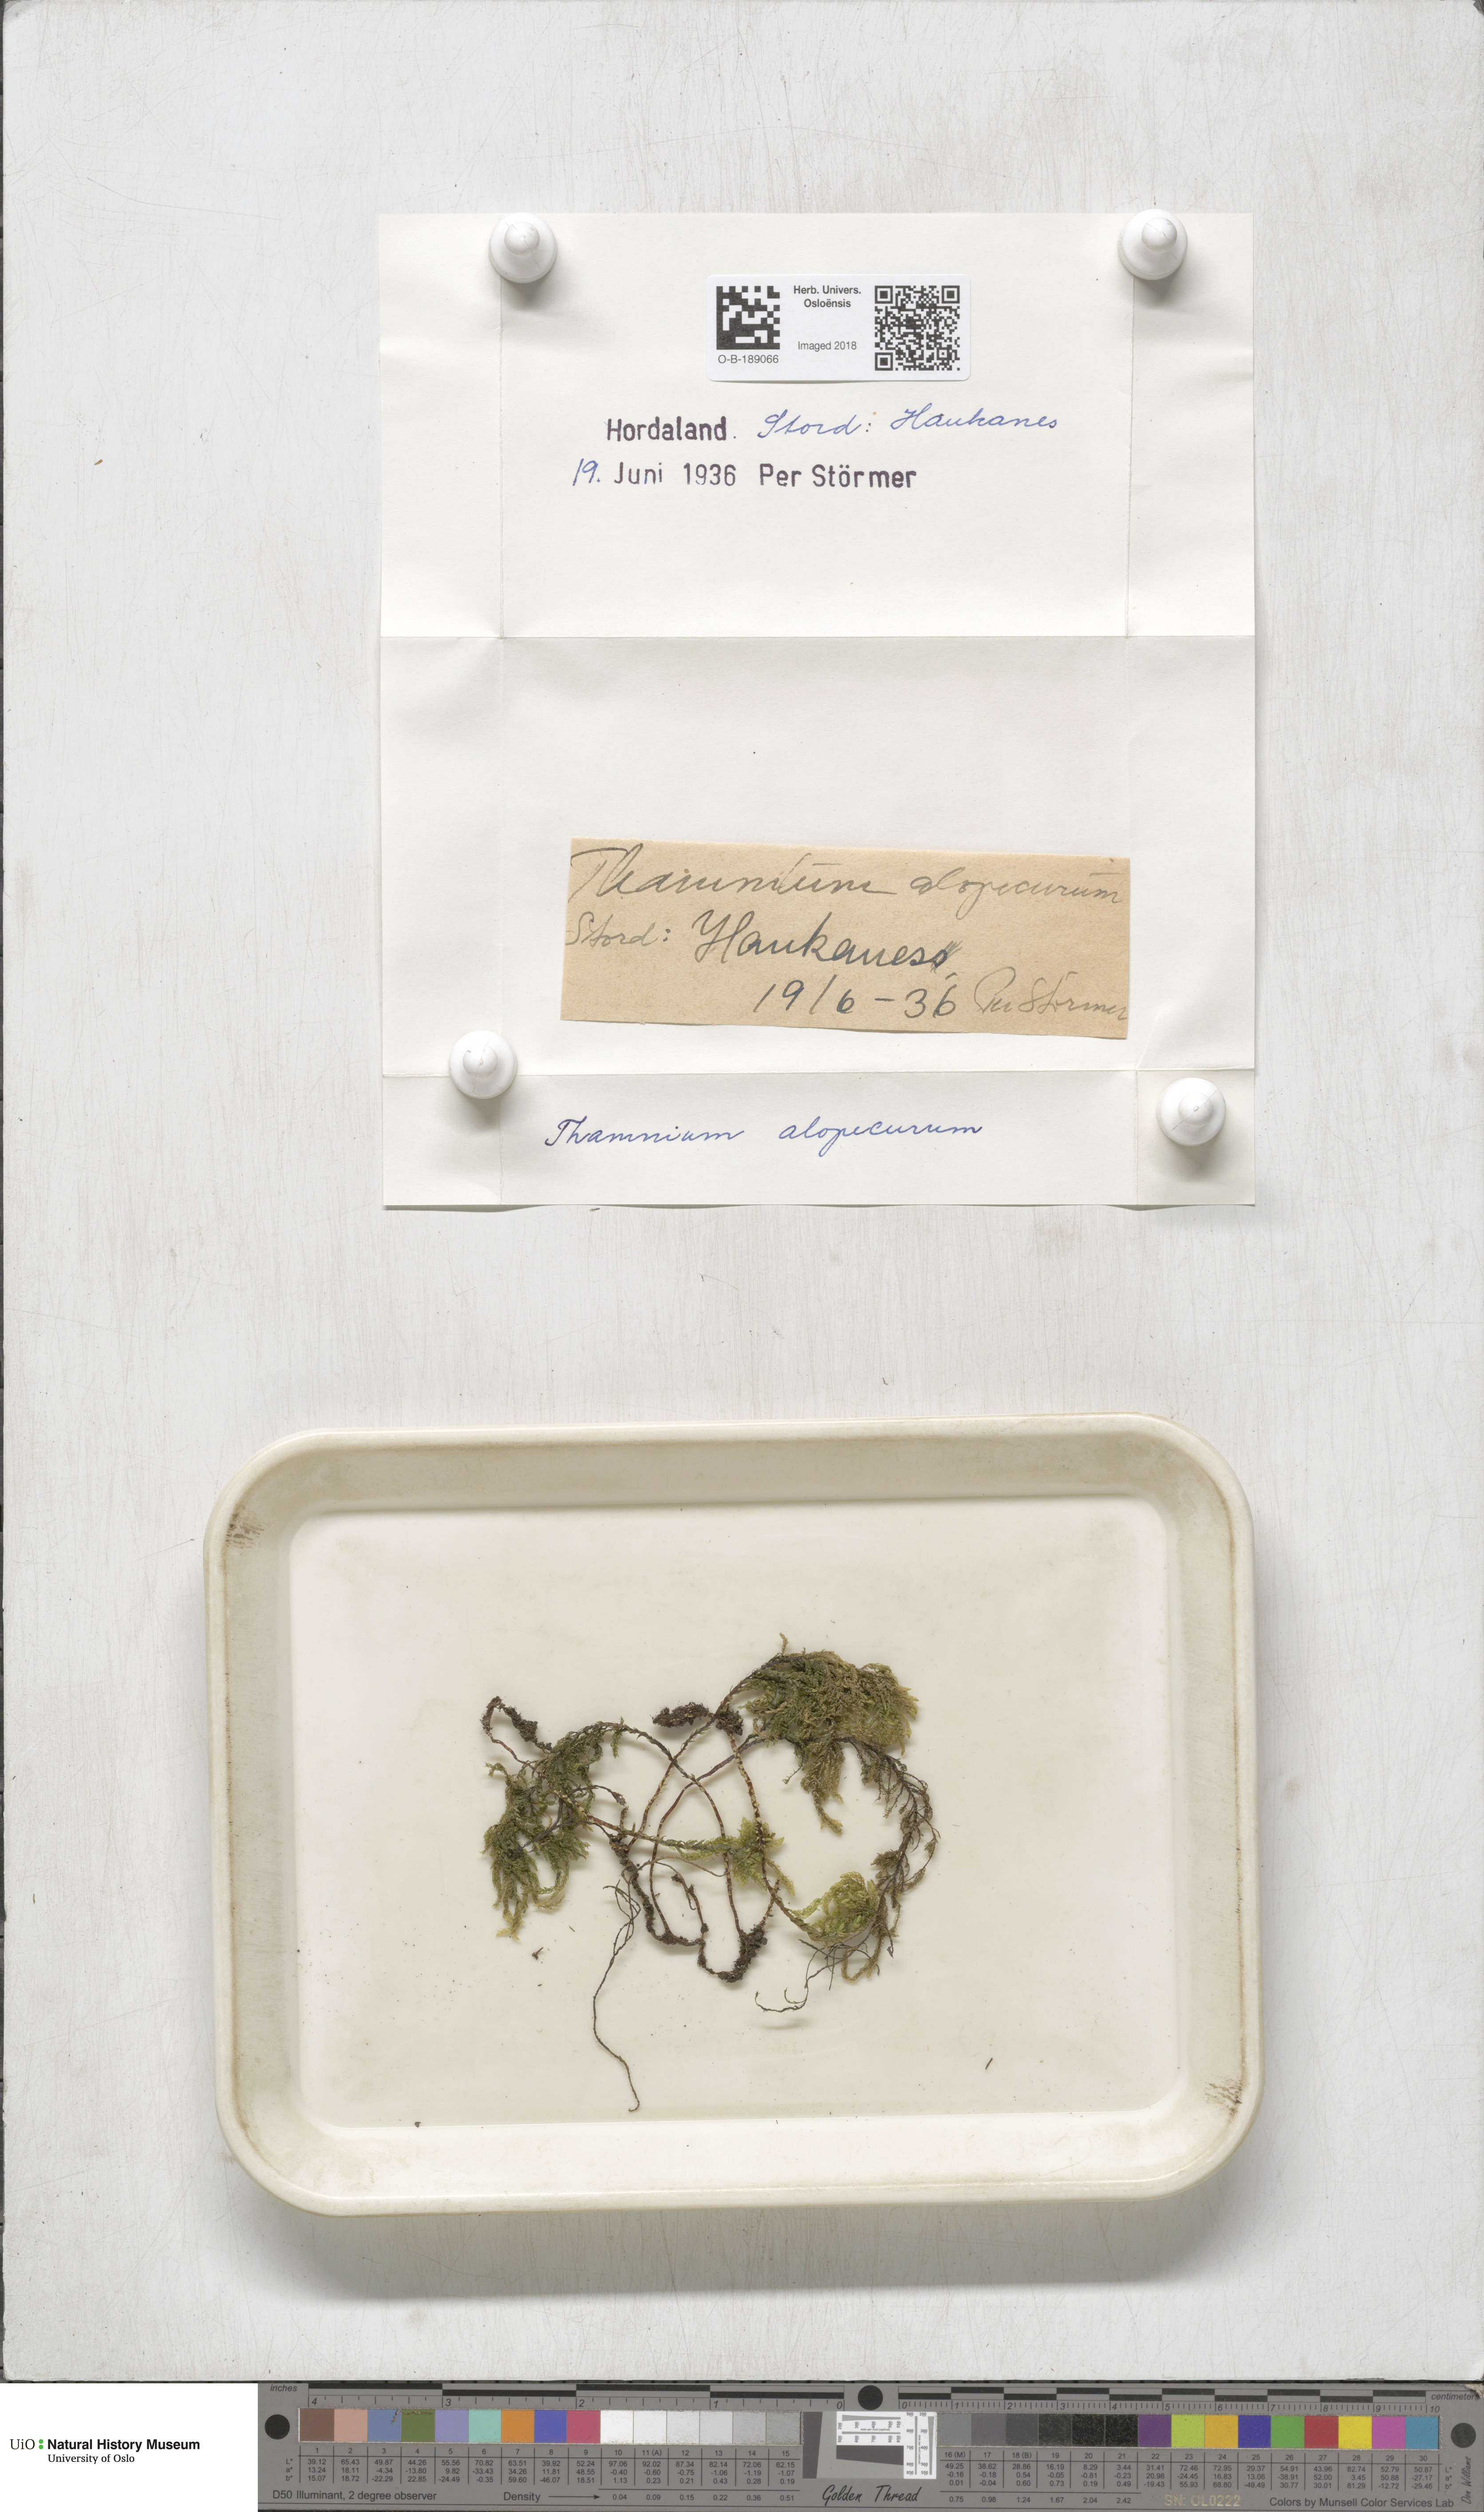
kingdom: Plantae
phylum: Bryophyta
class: Bryopsida
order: Hypnales
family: Neckeraceae
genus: Thamnobryum
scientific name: Thamnobryum alopecurum
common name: Fox-tail feather-moss
